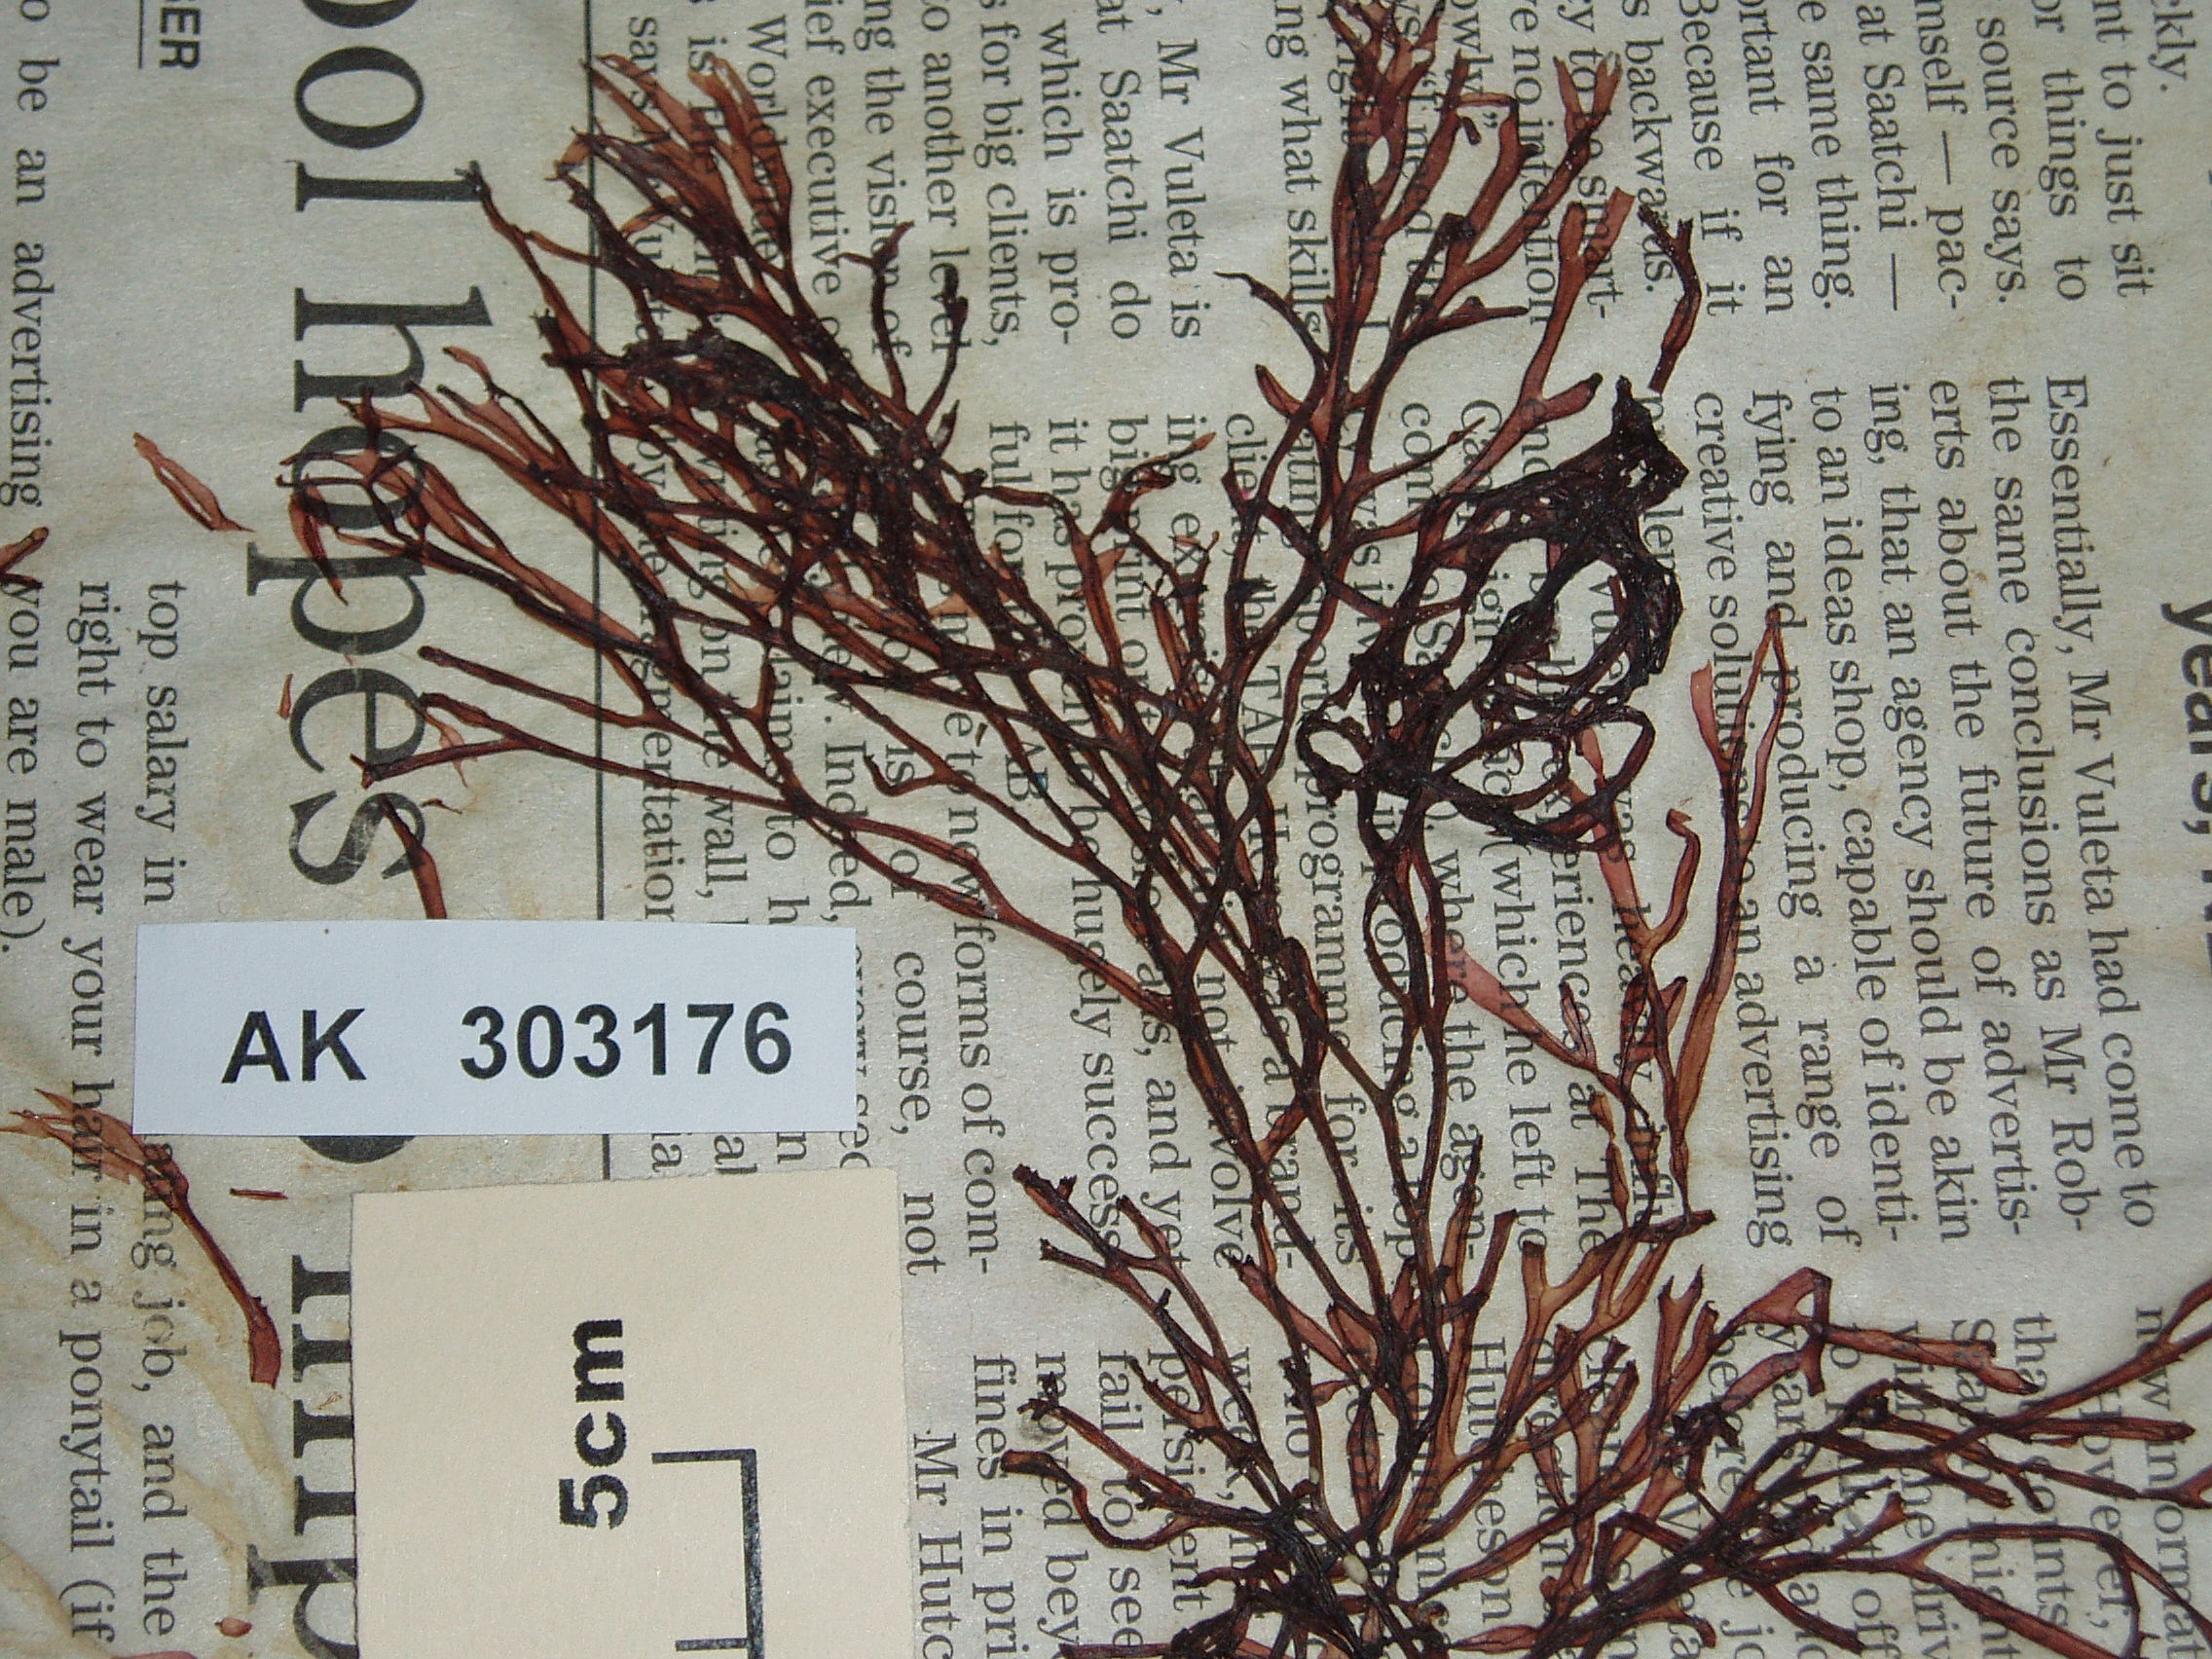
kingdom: Plantae
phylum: Rhodophyta
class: Florideophyceae
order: Nemaliales
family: Scinaiaceae
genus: Scinaia
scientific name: Scinaia acuta
